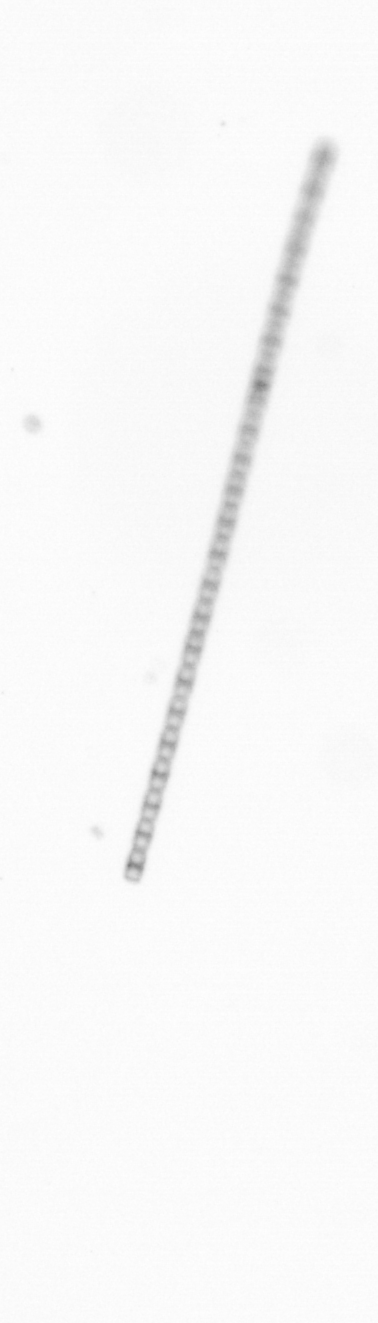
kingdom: Chromista
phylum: Ochrophyta
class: Bacillariophyceae
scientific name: Bacillariophyceae
